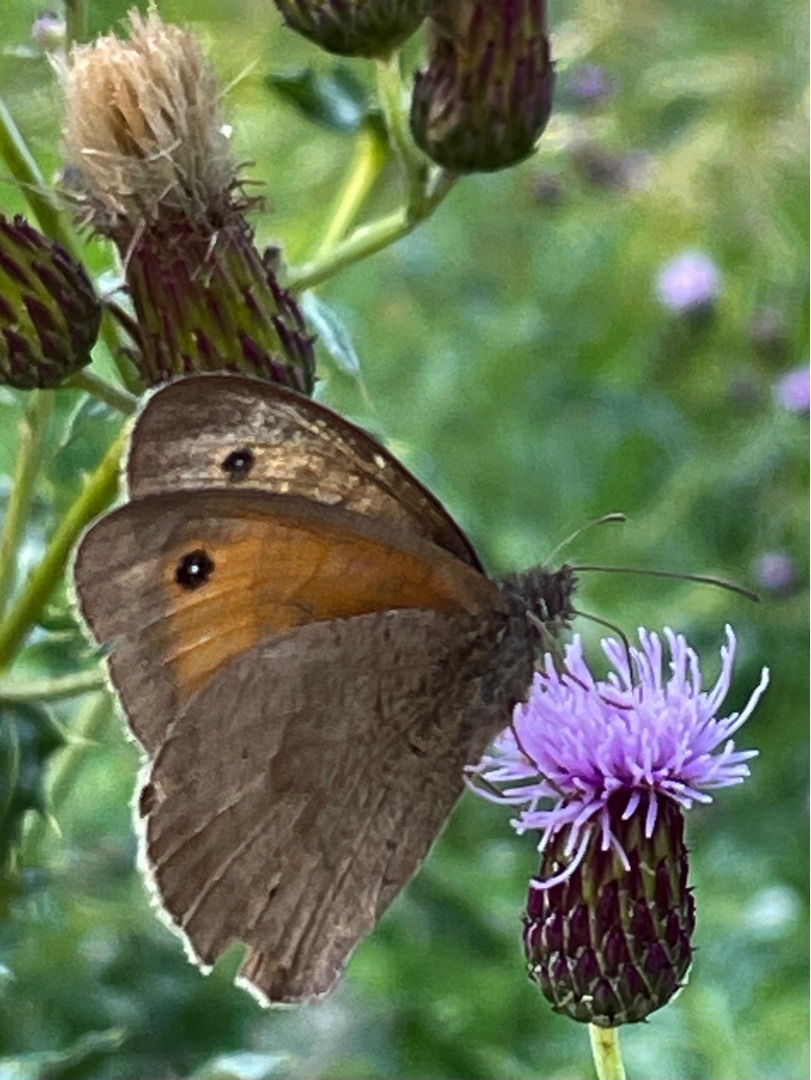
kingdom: Animalia
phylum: Arthropoda
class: Insecta
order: Lepidoptera
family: Nymphalidae
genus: Maniola
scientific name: Maniola jurtina
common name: Græsrandøje
